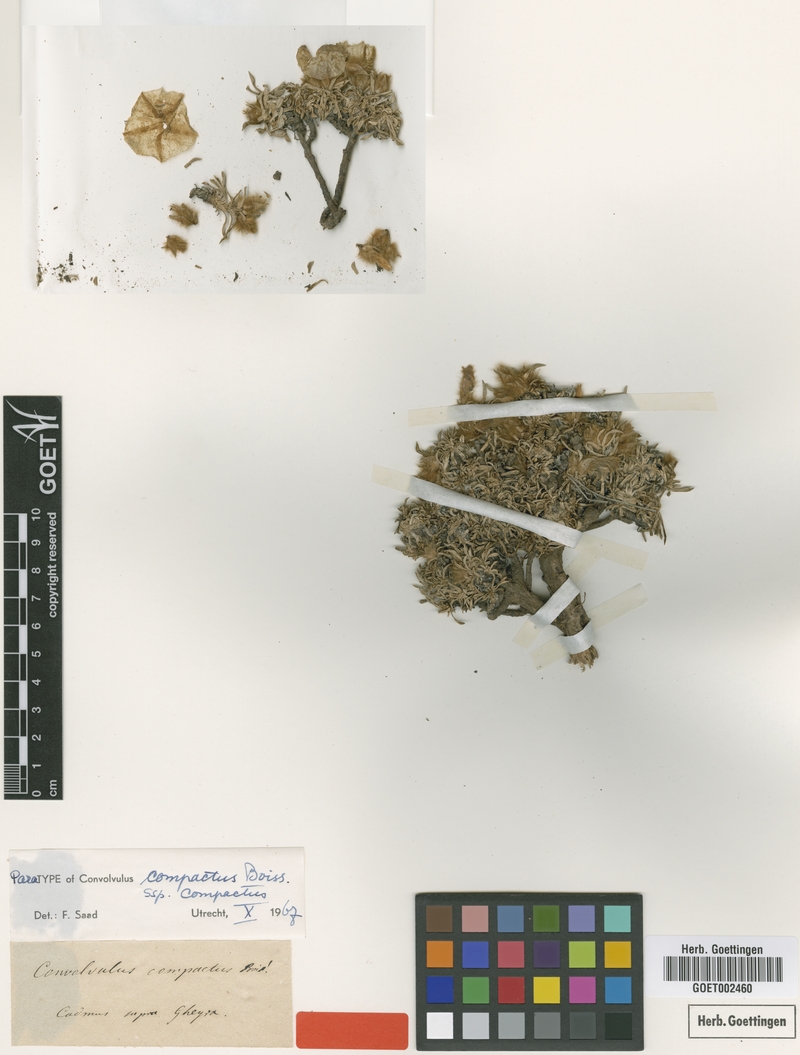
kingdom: Plantae
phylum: Tracheophyta
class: Magnoliopsida
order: Solanales
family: Convolvulaceae
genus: Convolvulus
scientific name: Convolvulus boissieri
